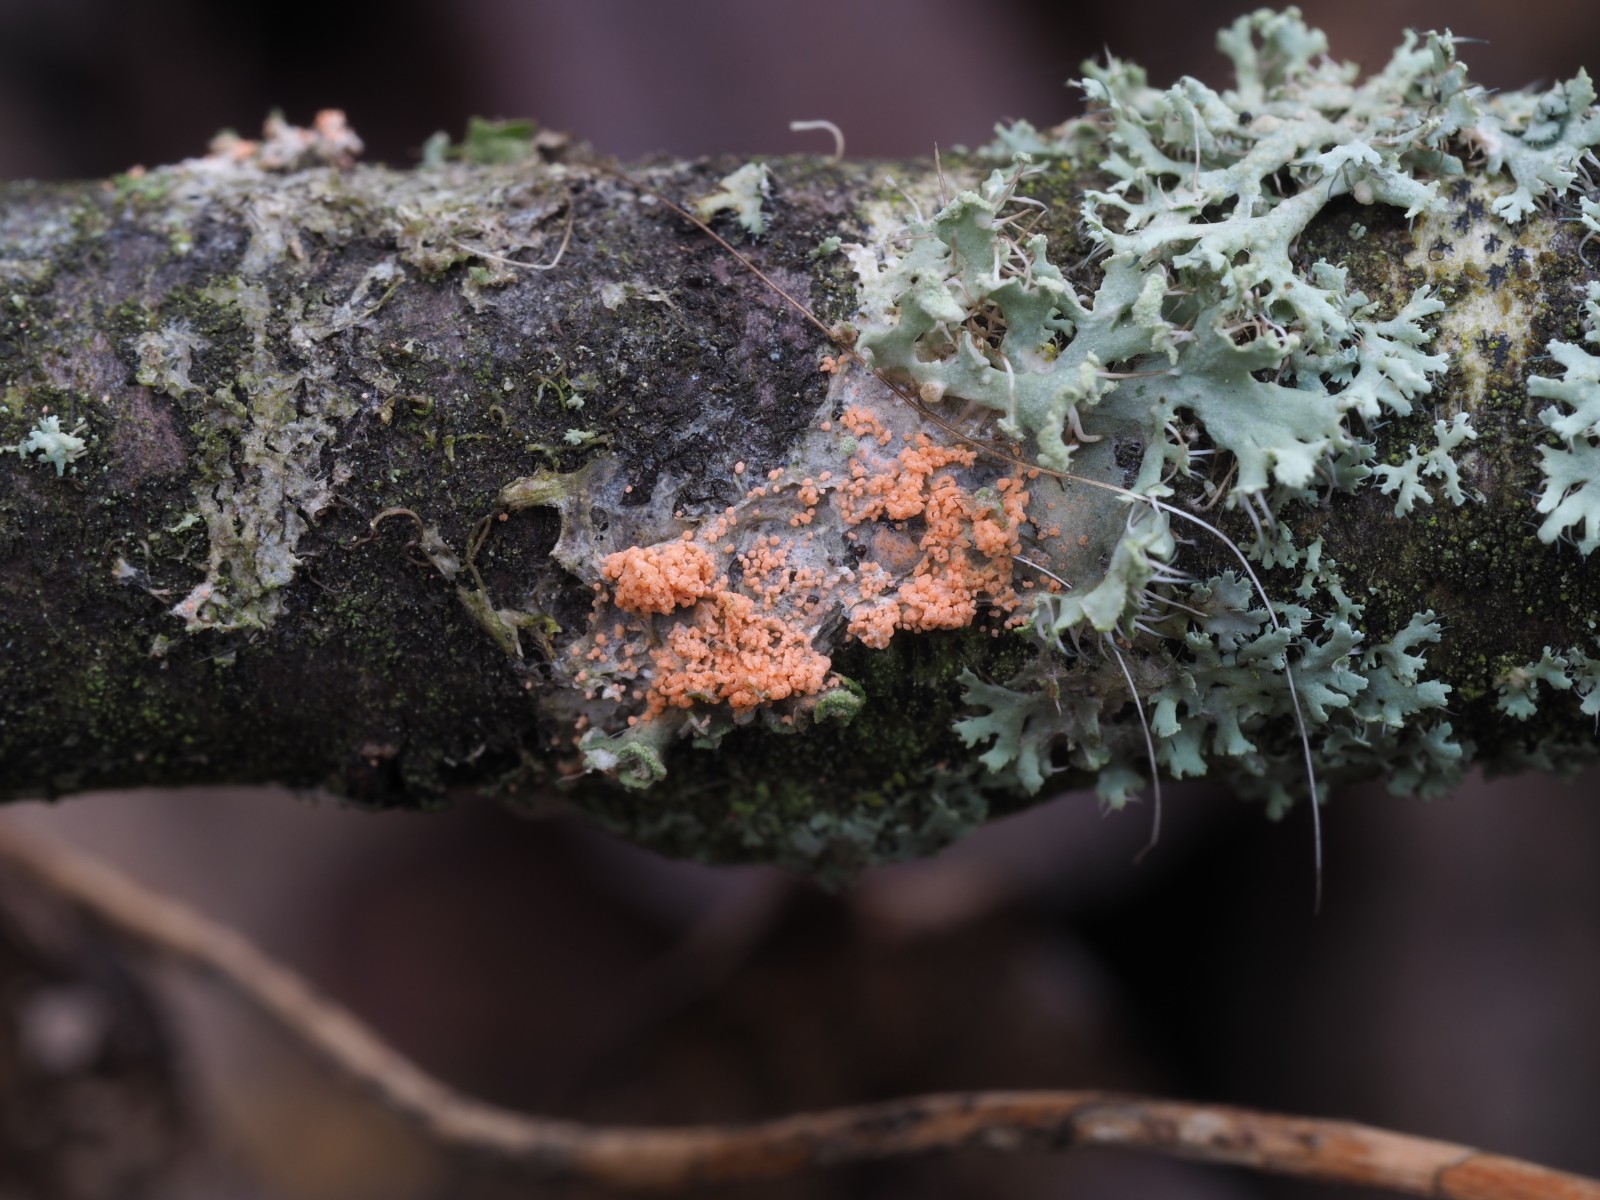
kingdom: Fungi
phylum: Basidiomycota
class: Agaricomycetes
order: Corticiales
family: Corticiaceae
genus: Erythricium
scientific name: Erythricium aurantiacum
